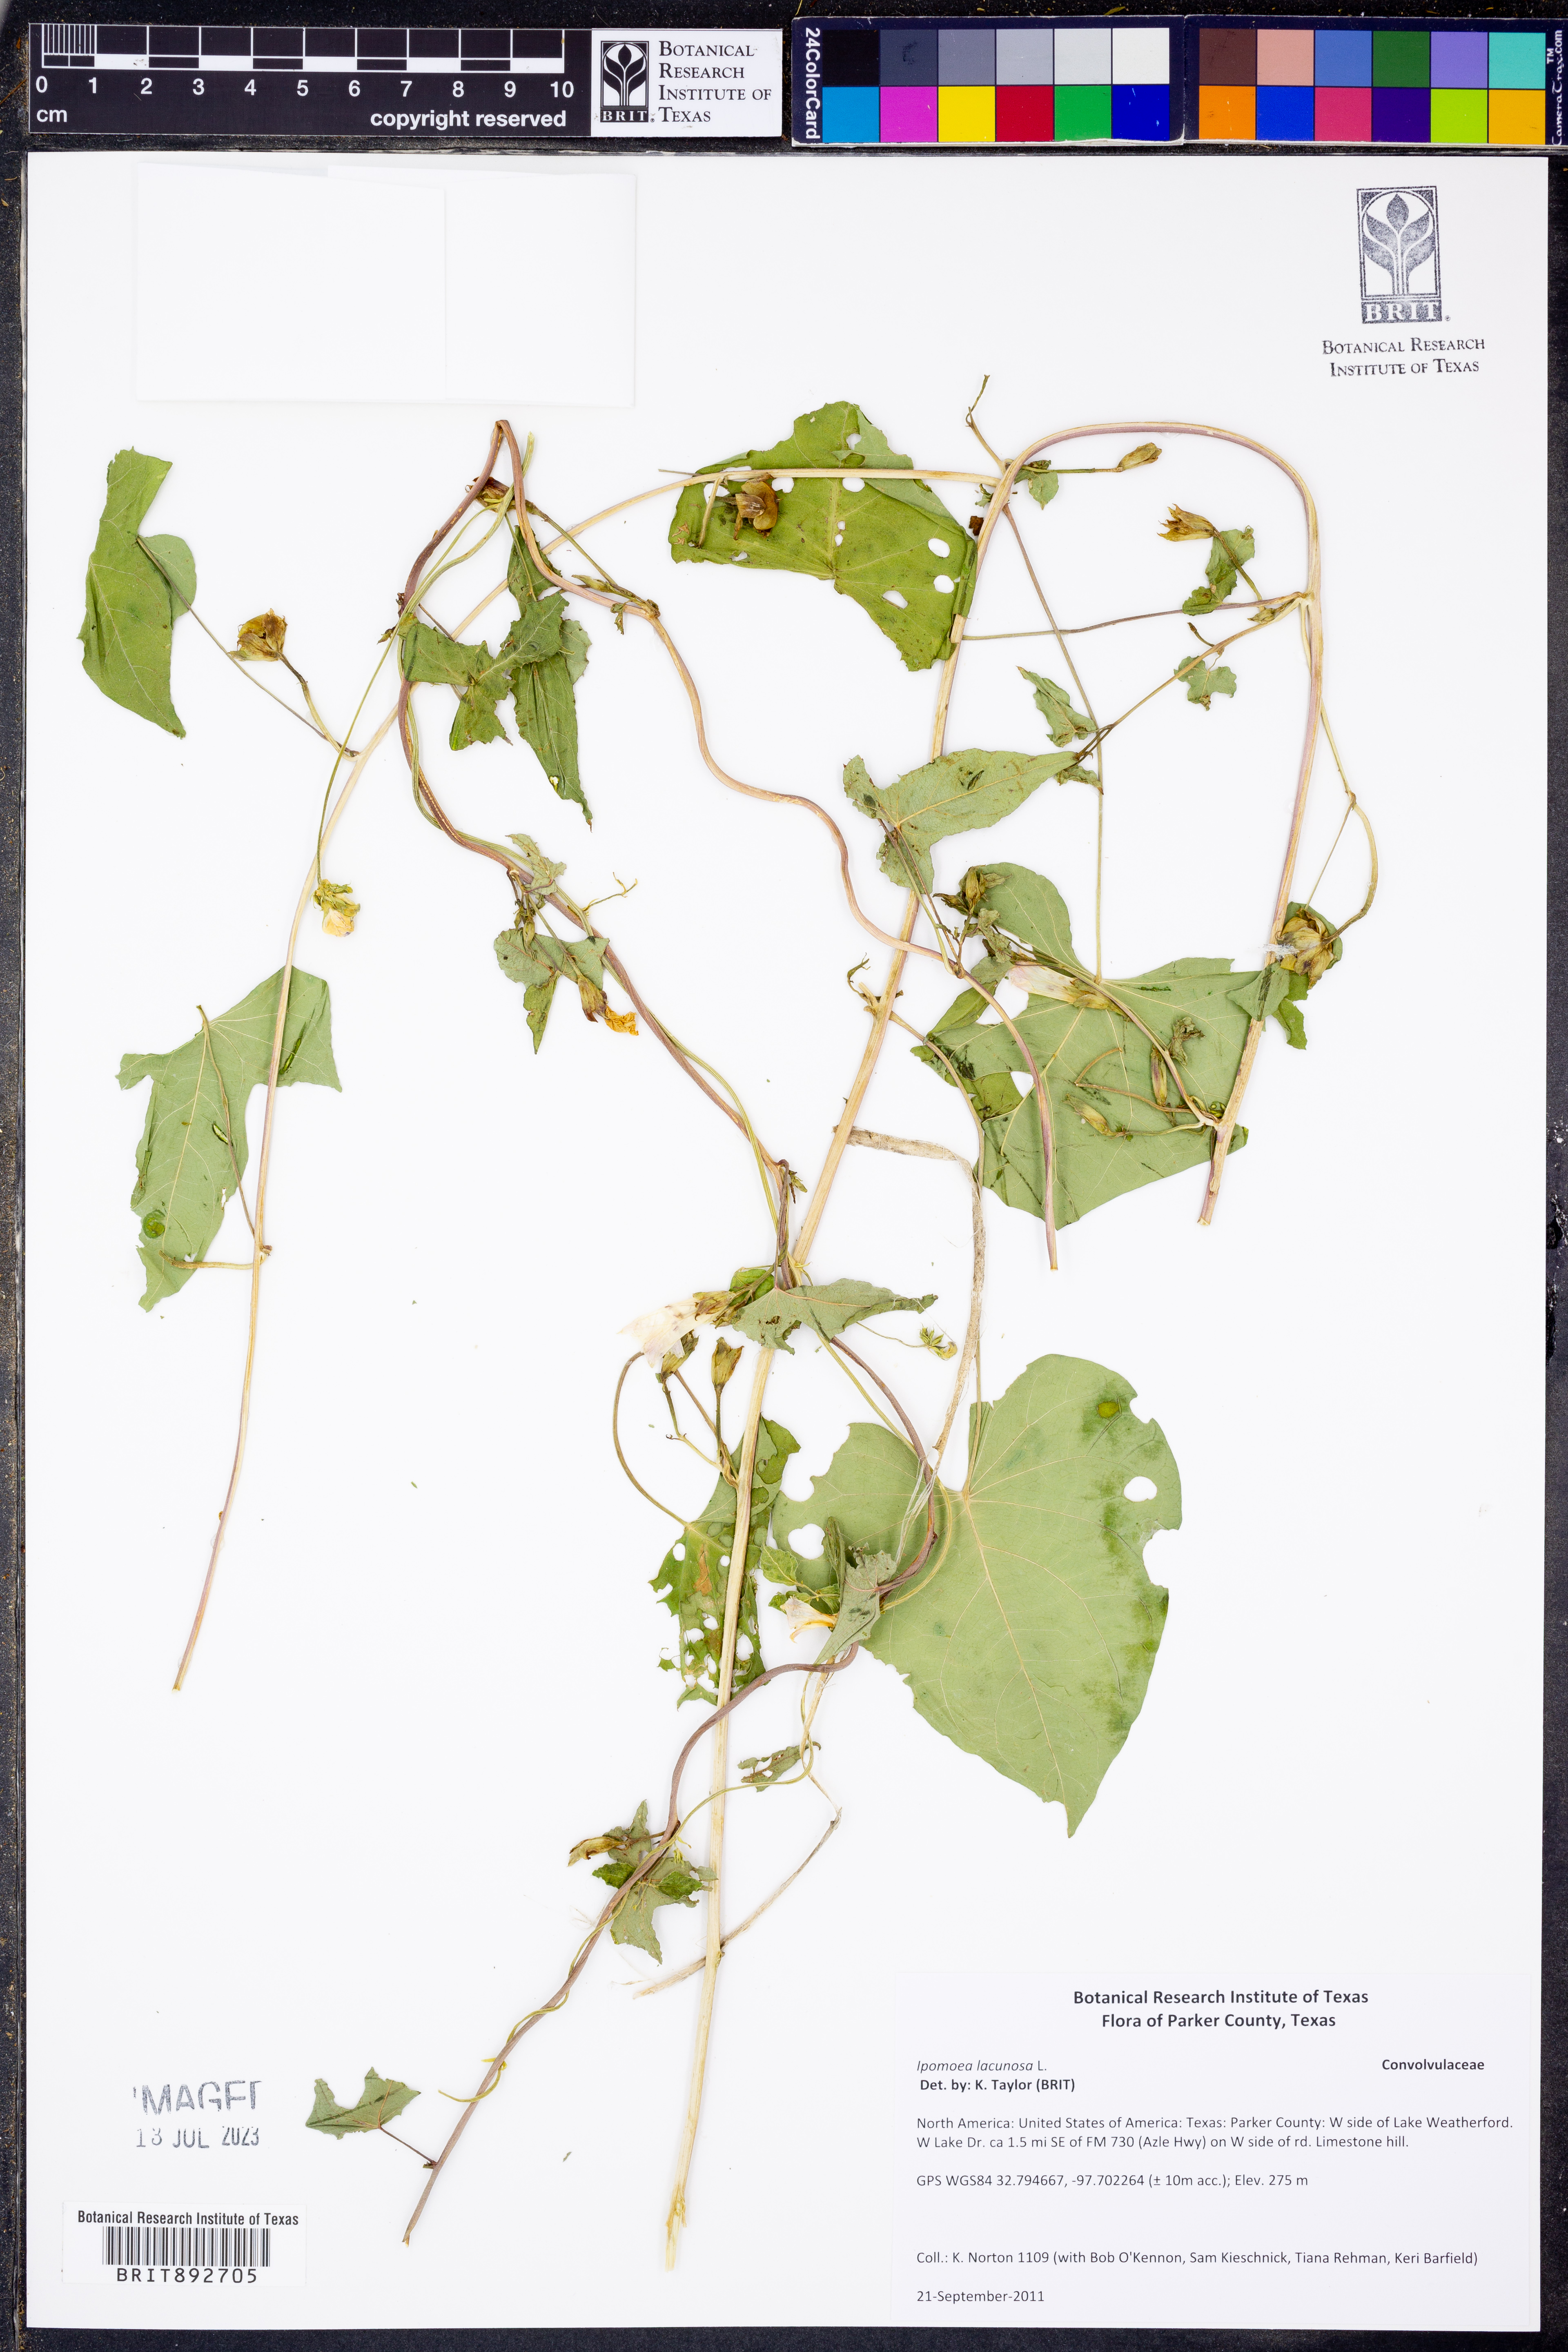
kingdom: Plantae
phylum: Tracheophyta
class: Magnoliopsida
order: Solanales
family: Convolvulaceae
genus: Ipomoea
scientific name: Ipomoea lacunosa
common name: White morning-glory
